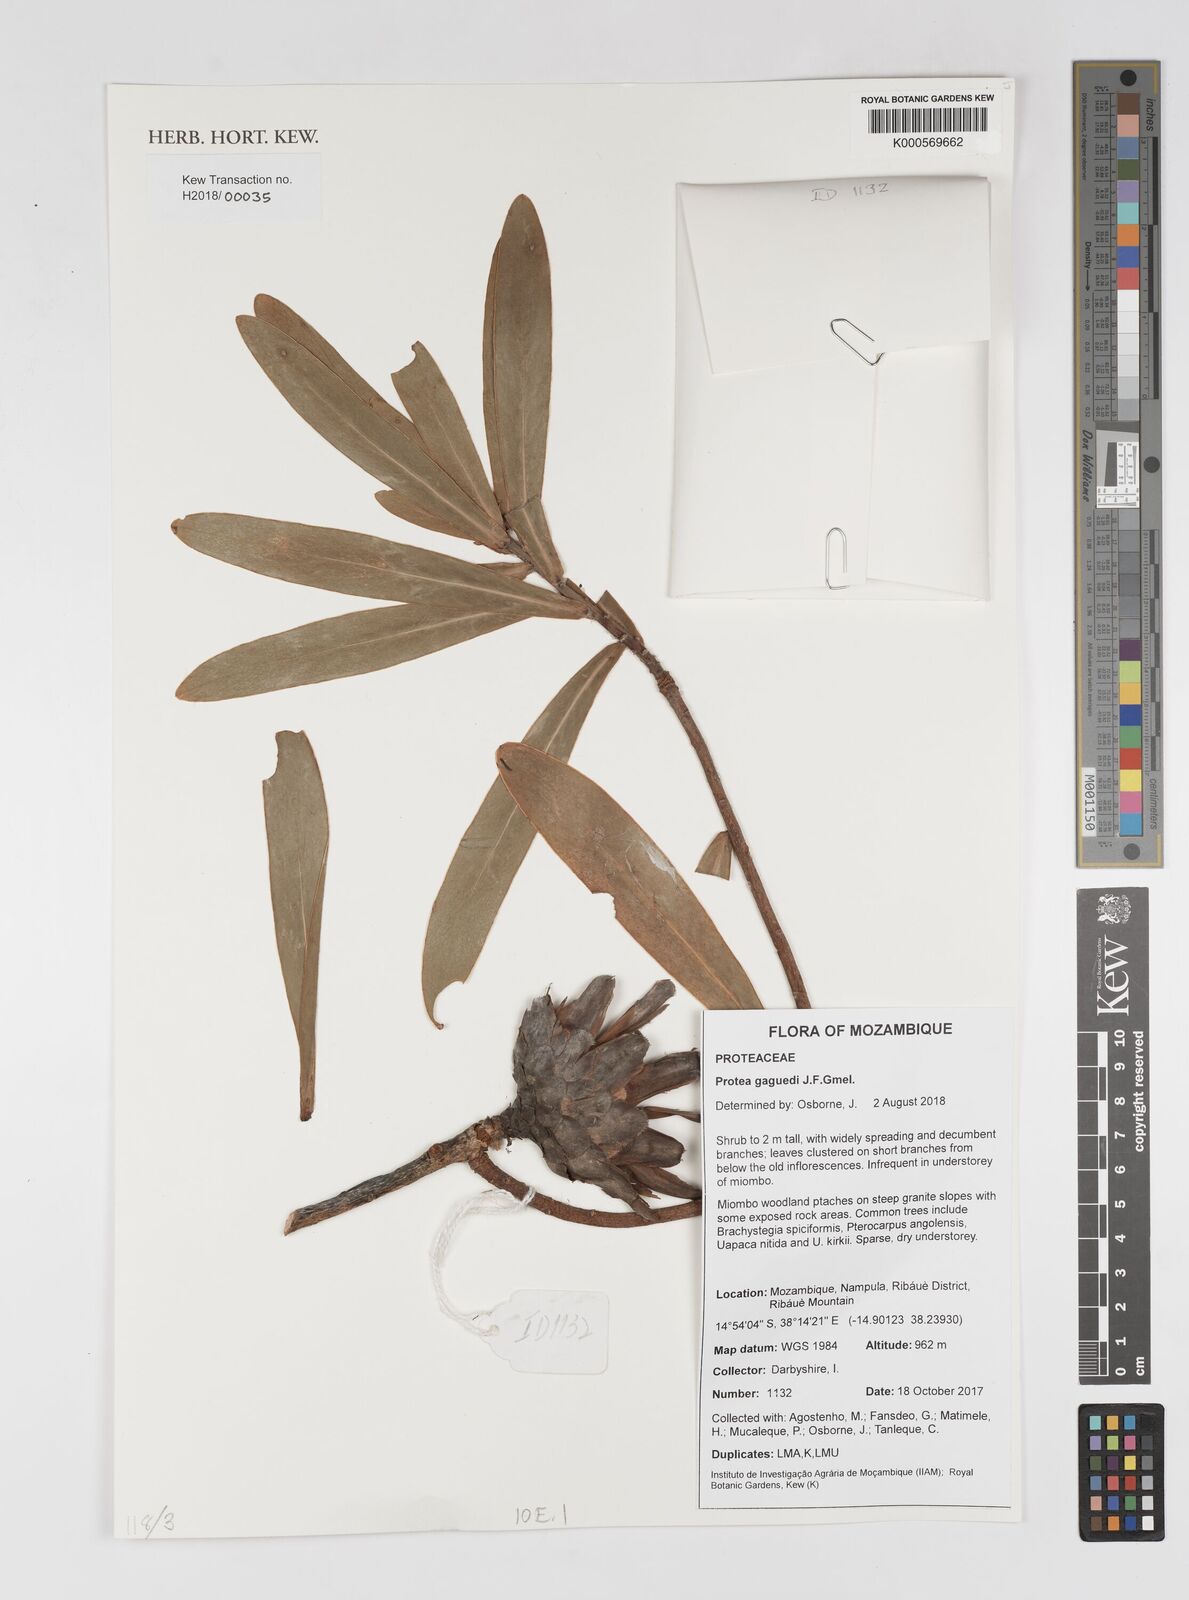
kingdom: Plantae
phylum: Tracheophyta
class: Magnoliopsida
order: Proteales
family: Proteaceae
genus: Protea
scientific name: Protea gaguedi
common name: African protea
